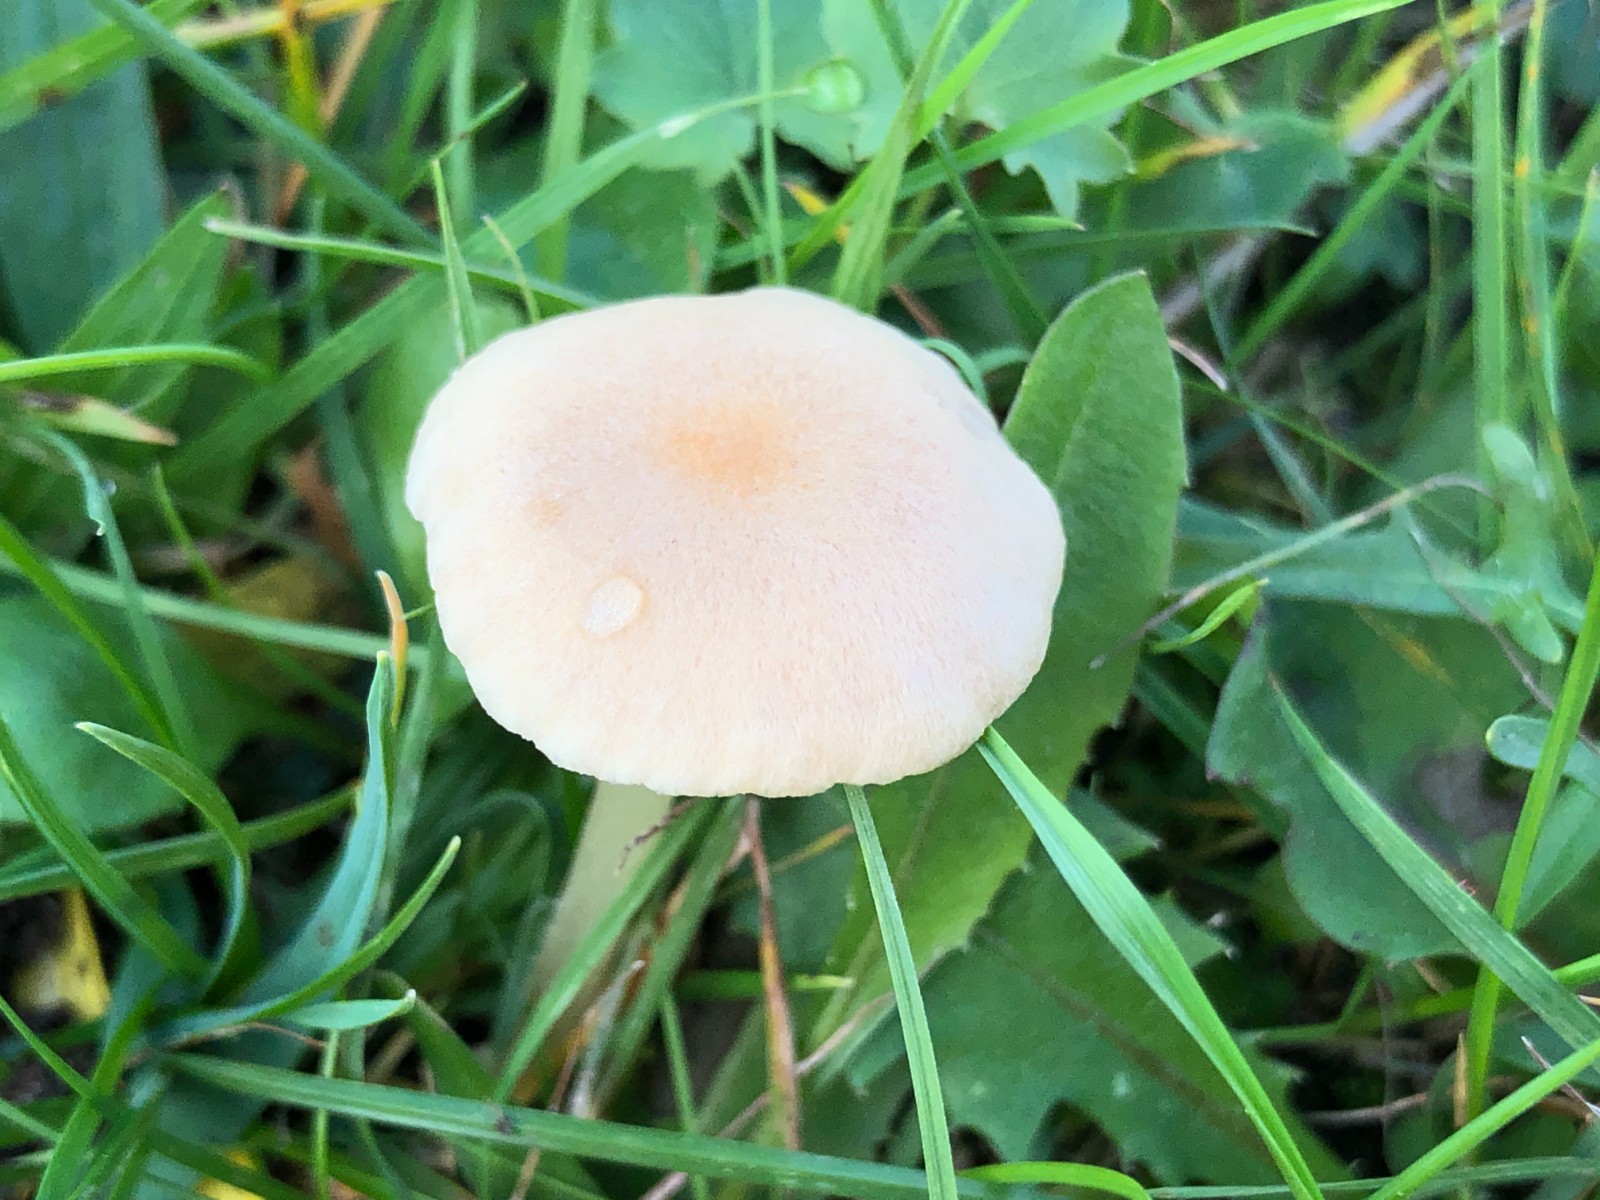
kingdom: Fungi
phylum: Basidiomycota
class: Agaricomycetes
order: Agaricales
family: Entolomataceae
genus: Entoloma
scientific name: Entoloma sericellum
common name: silkehvid rødblad
